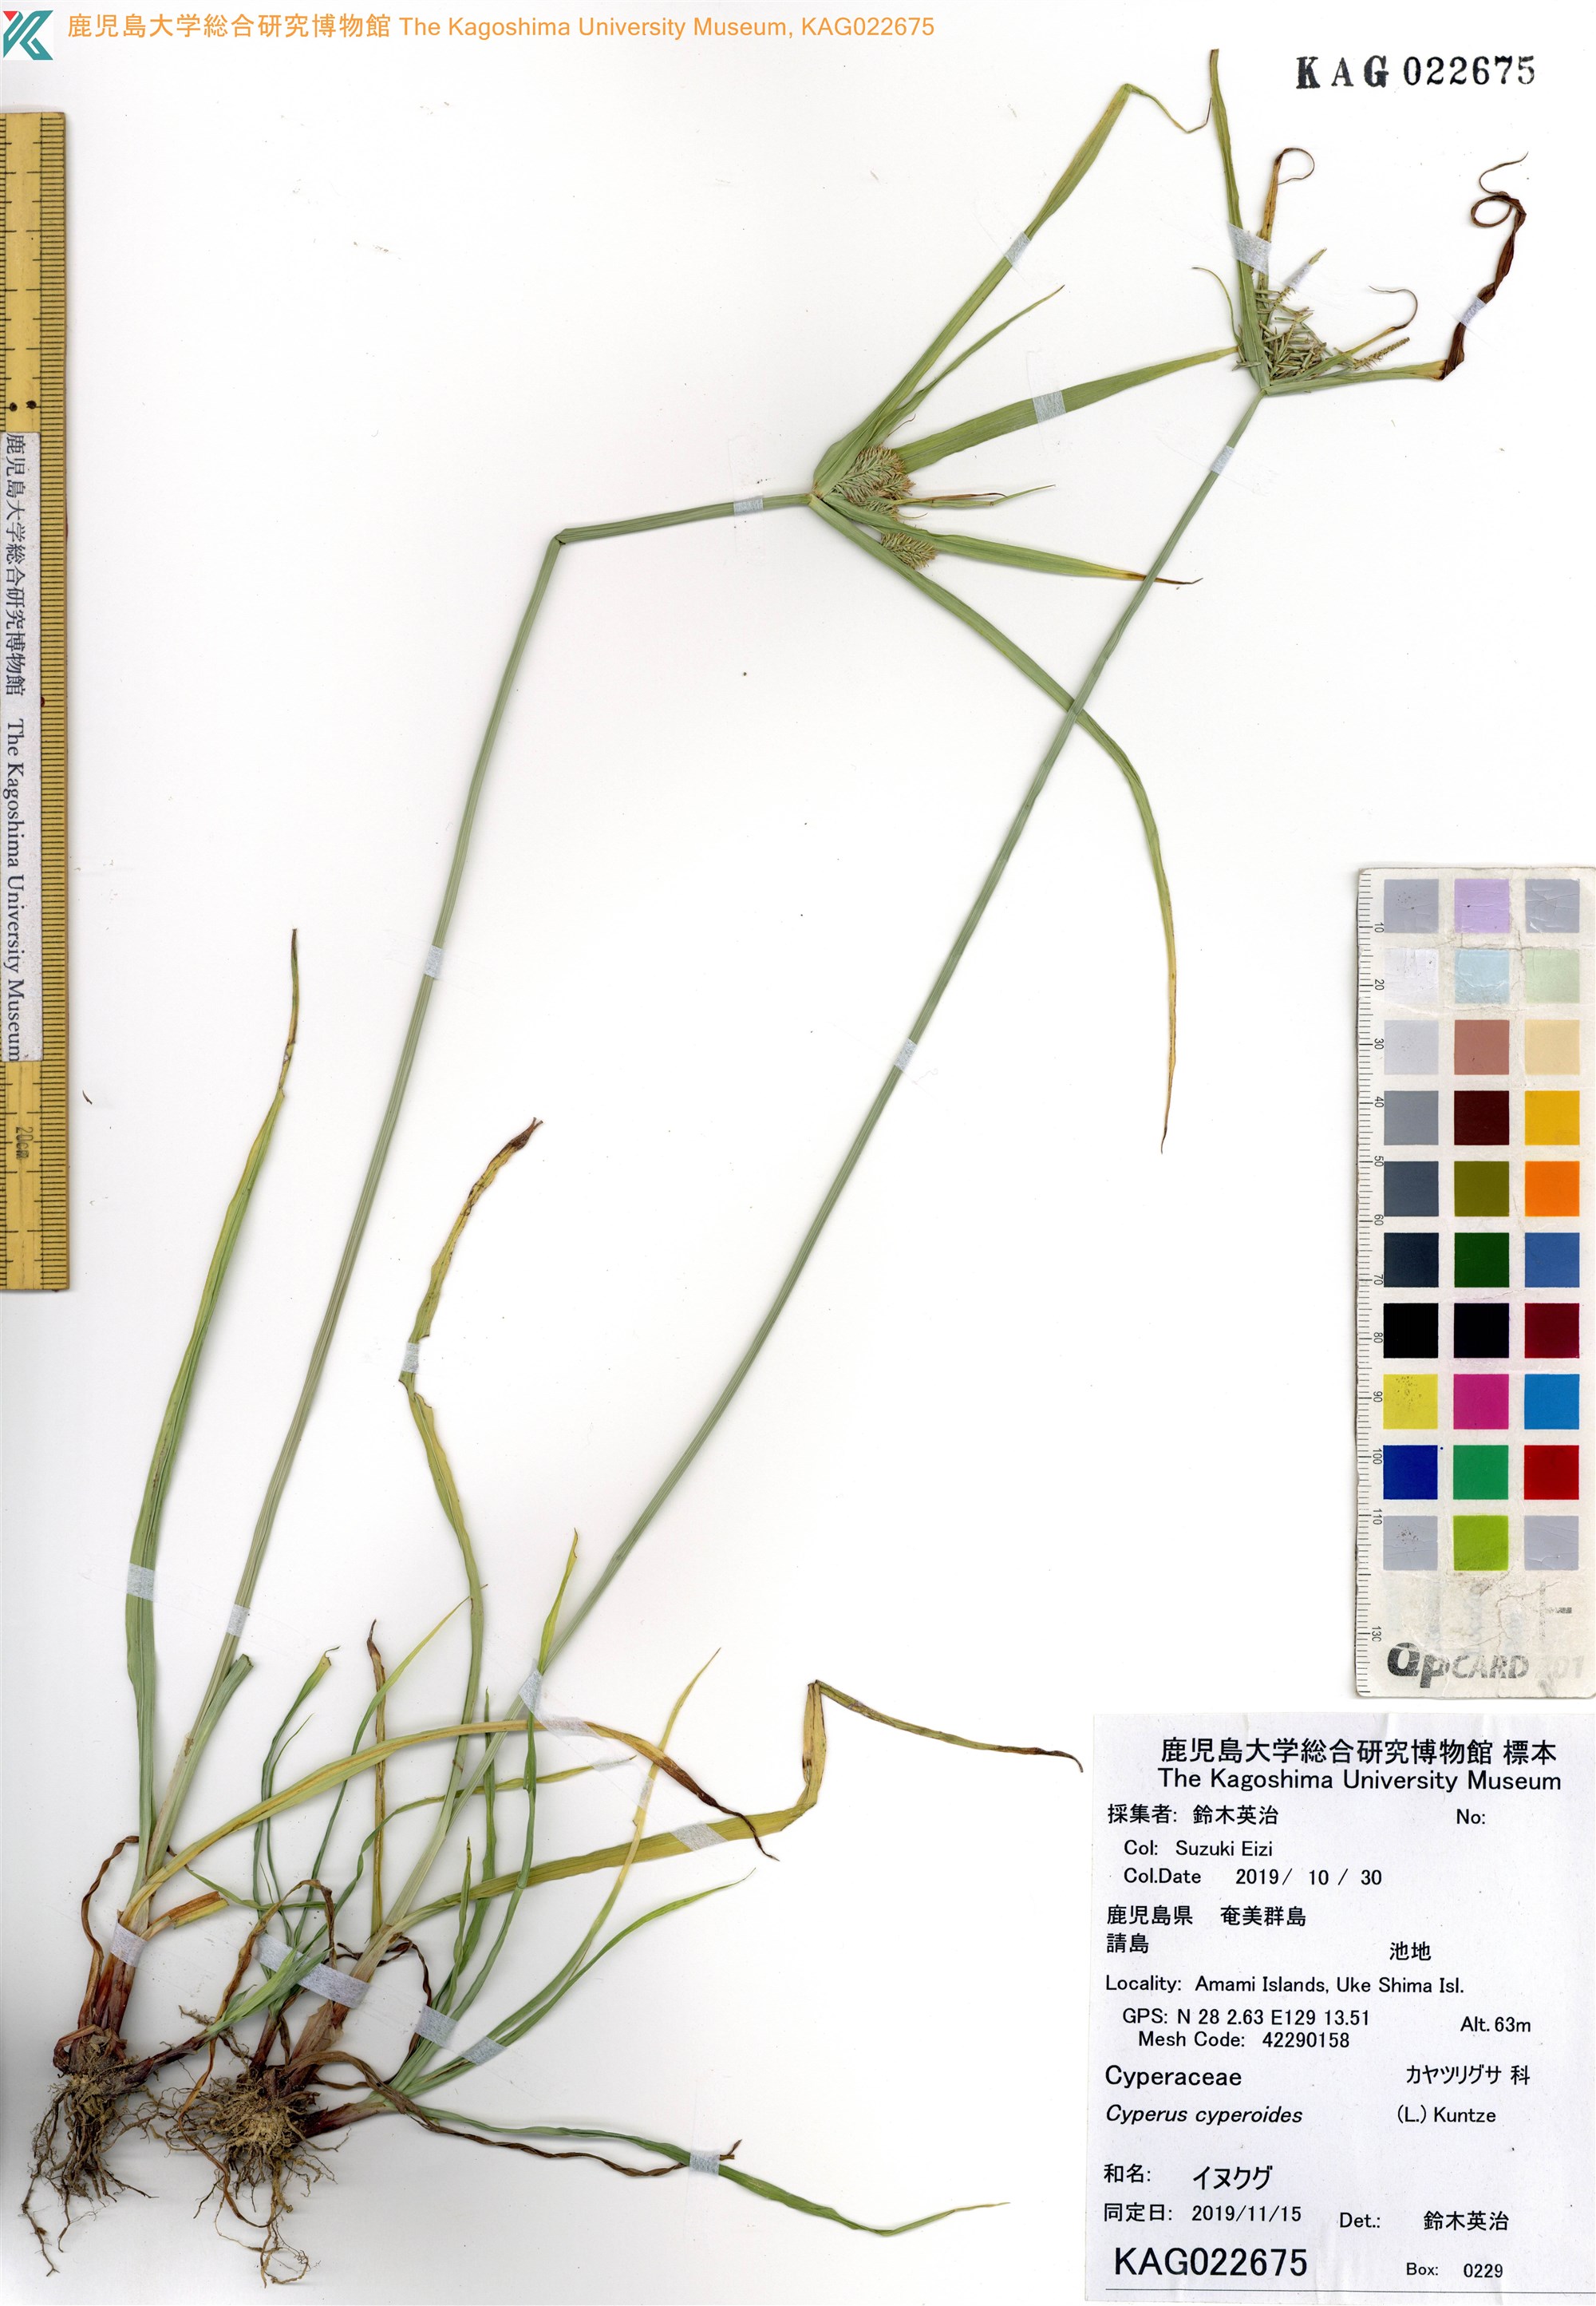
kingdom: Plantae
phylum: Tracheophyta
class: Liliopsida
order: Poales
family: Cyperaceae
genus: Cyperus
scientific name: Cyperus cyperoides
